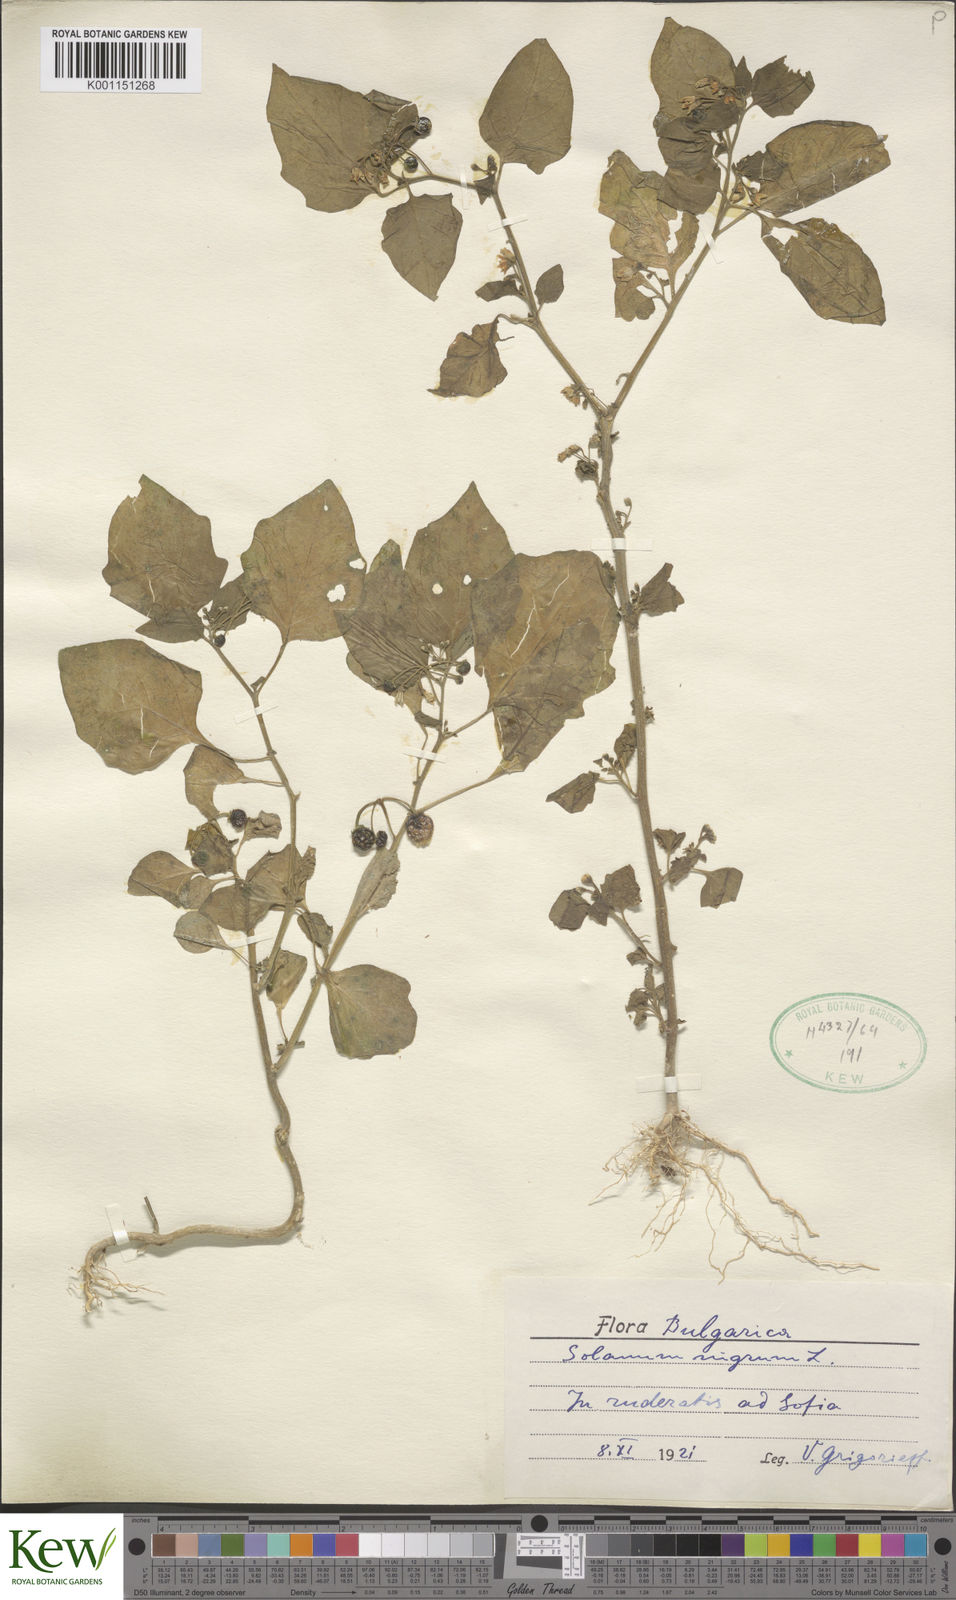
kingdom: Plantae
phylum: Tracheophyta
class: Magnoliopsida
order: Solanales
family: Solanaceae
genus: Solanum
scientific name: Solanum nigrum
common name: Black nightshade
